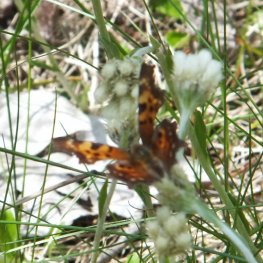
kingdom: Animalia
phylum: Arthropoda
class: Insecta
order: Lepidoptera
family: Nymphalidae
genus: Polygonia
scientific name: Polygonia faunus
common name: Green Comma
